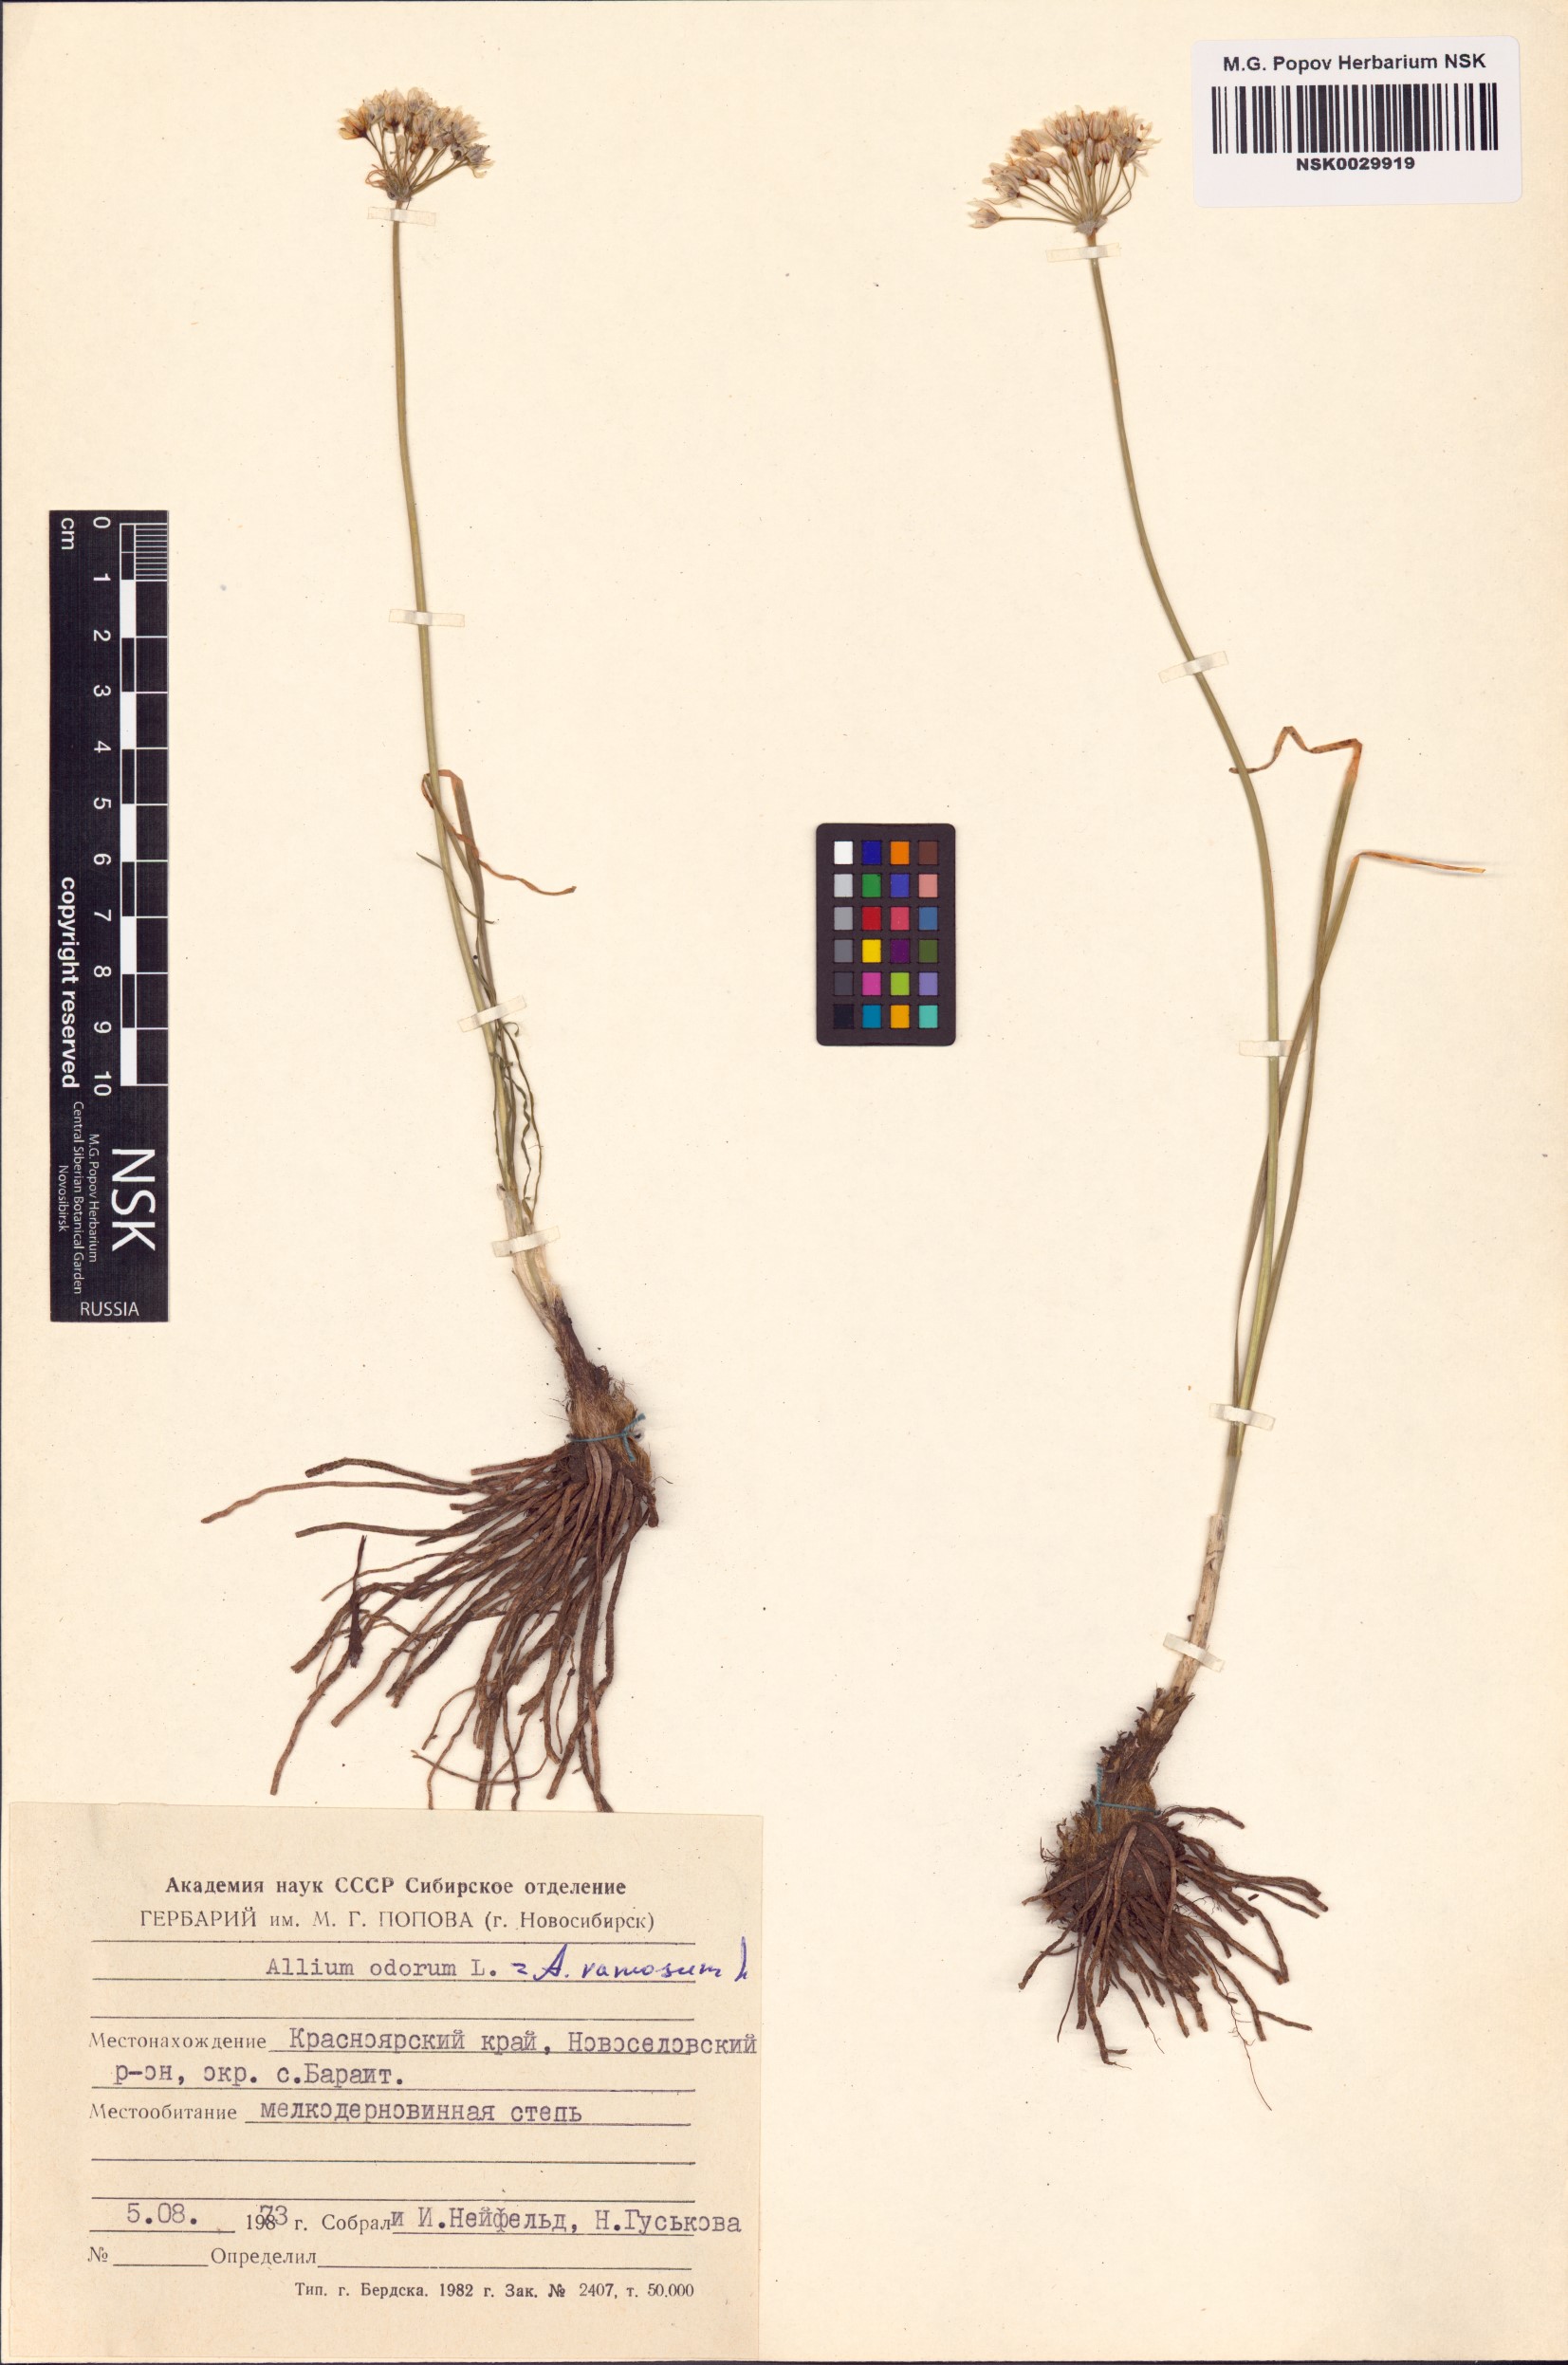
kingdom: Plantae
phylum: Tracheophyta
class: Liliopsida
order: Asparagales
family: Amaryllidaceae
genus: Allium
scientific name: Allium ramosum
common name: Fragrant garlic
